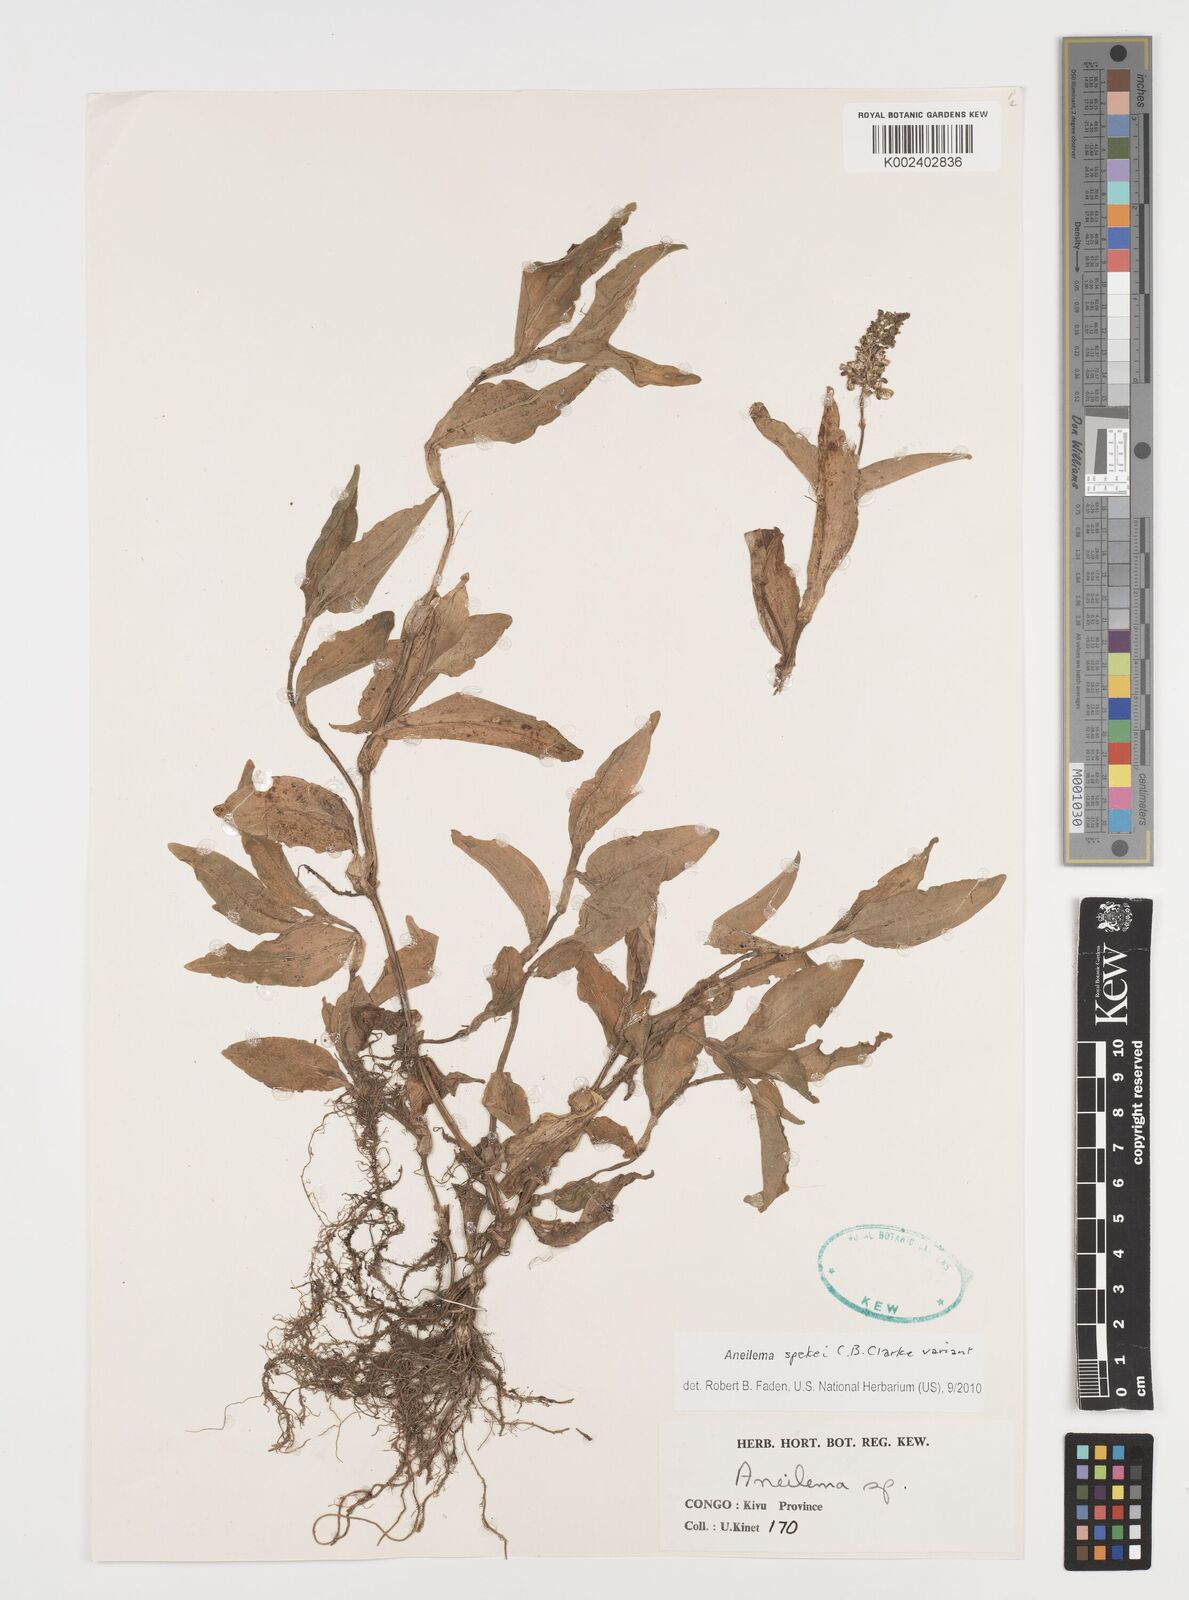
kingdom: Plantae
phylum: Tracheophyta
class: Liliopsida
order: Commelinales
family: Commelinaceae
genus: Aneilema
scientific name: Aneilema spekei
